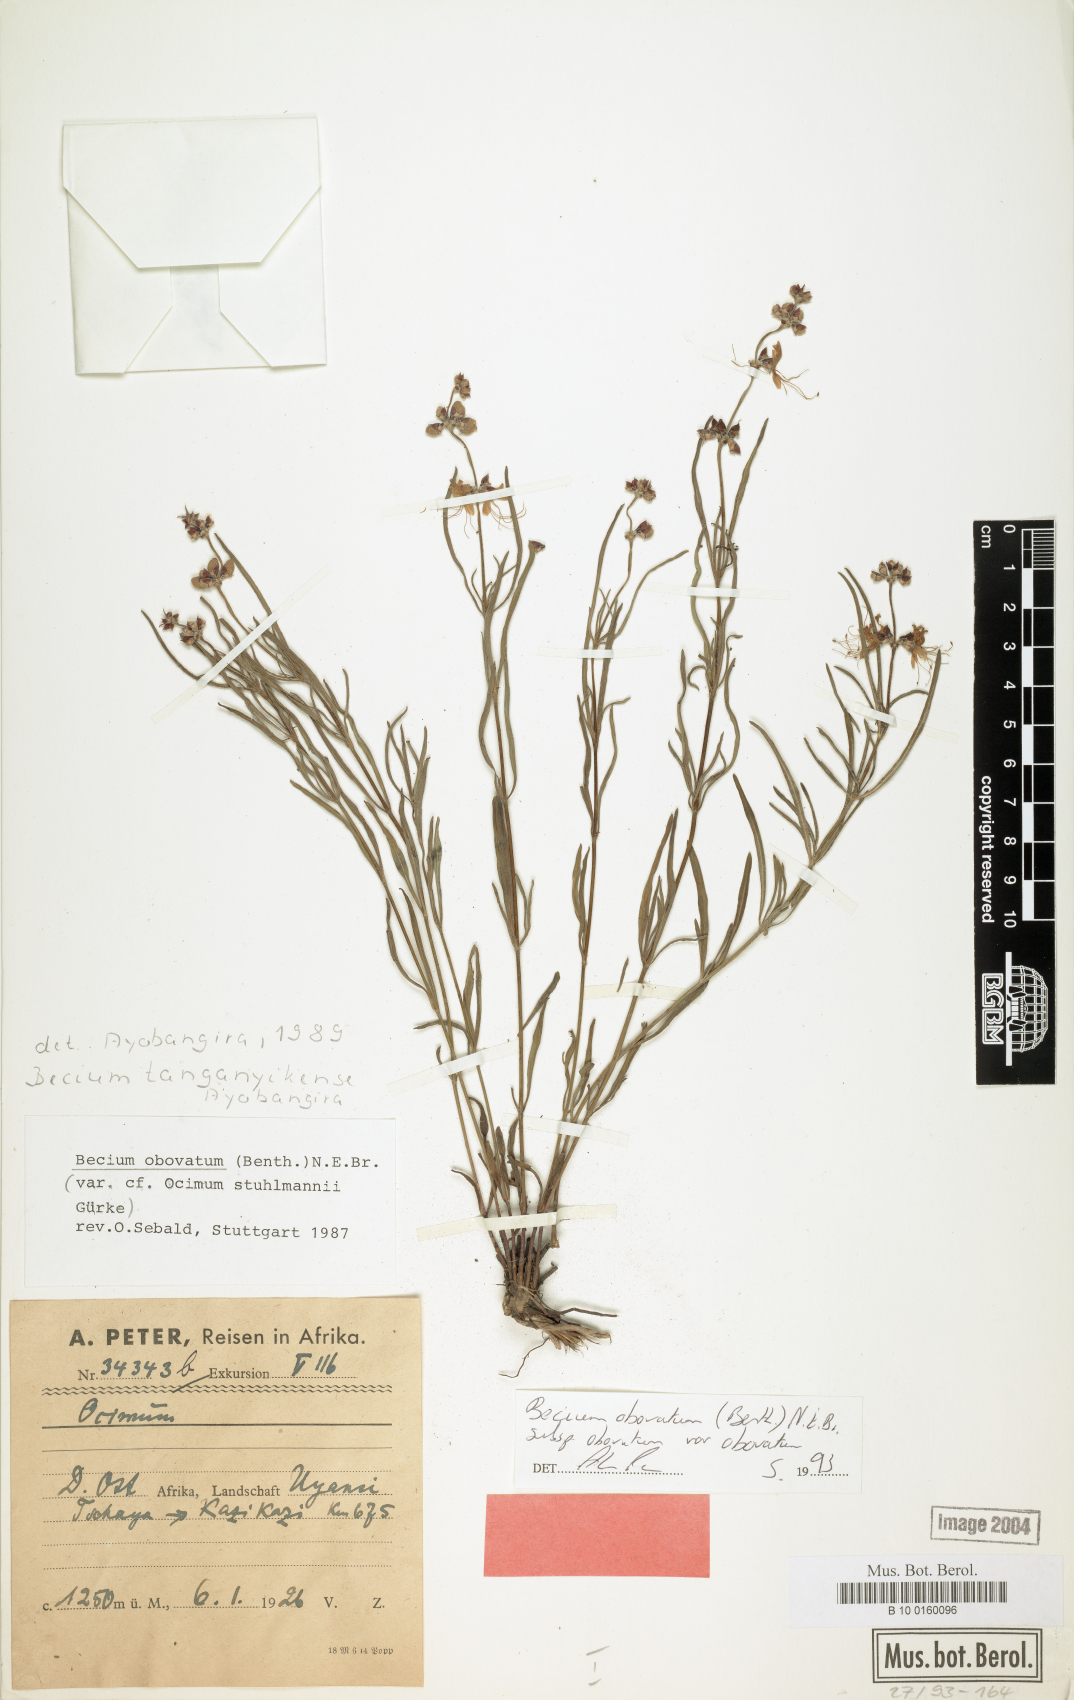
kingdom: Plantae
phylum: Tracheophyta
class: Magnoliopsida
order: Lamiales
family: Lamiaceae
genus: Ocimum
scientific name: Ocimum obovatum
